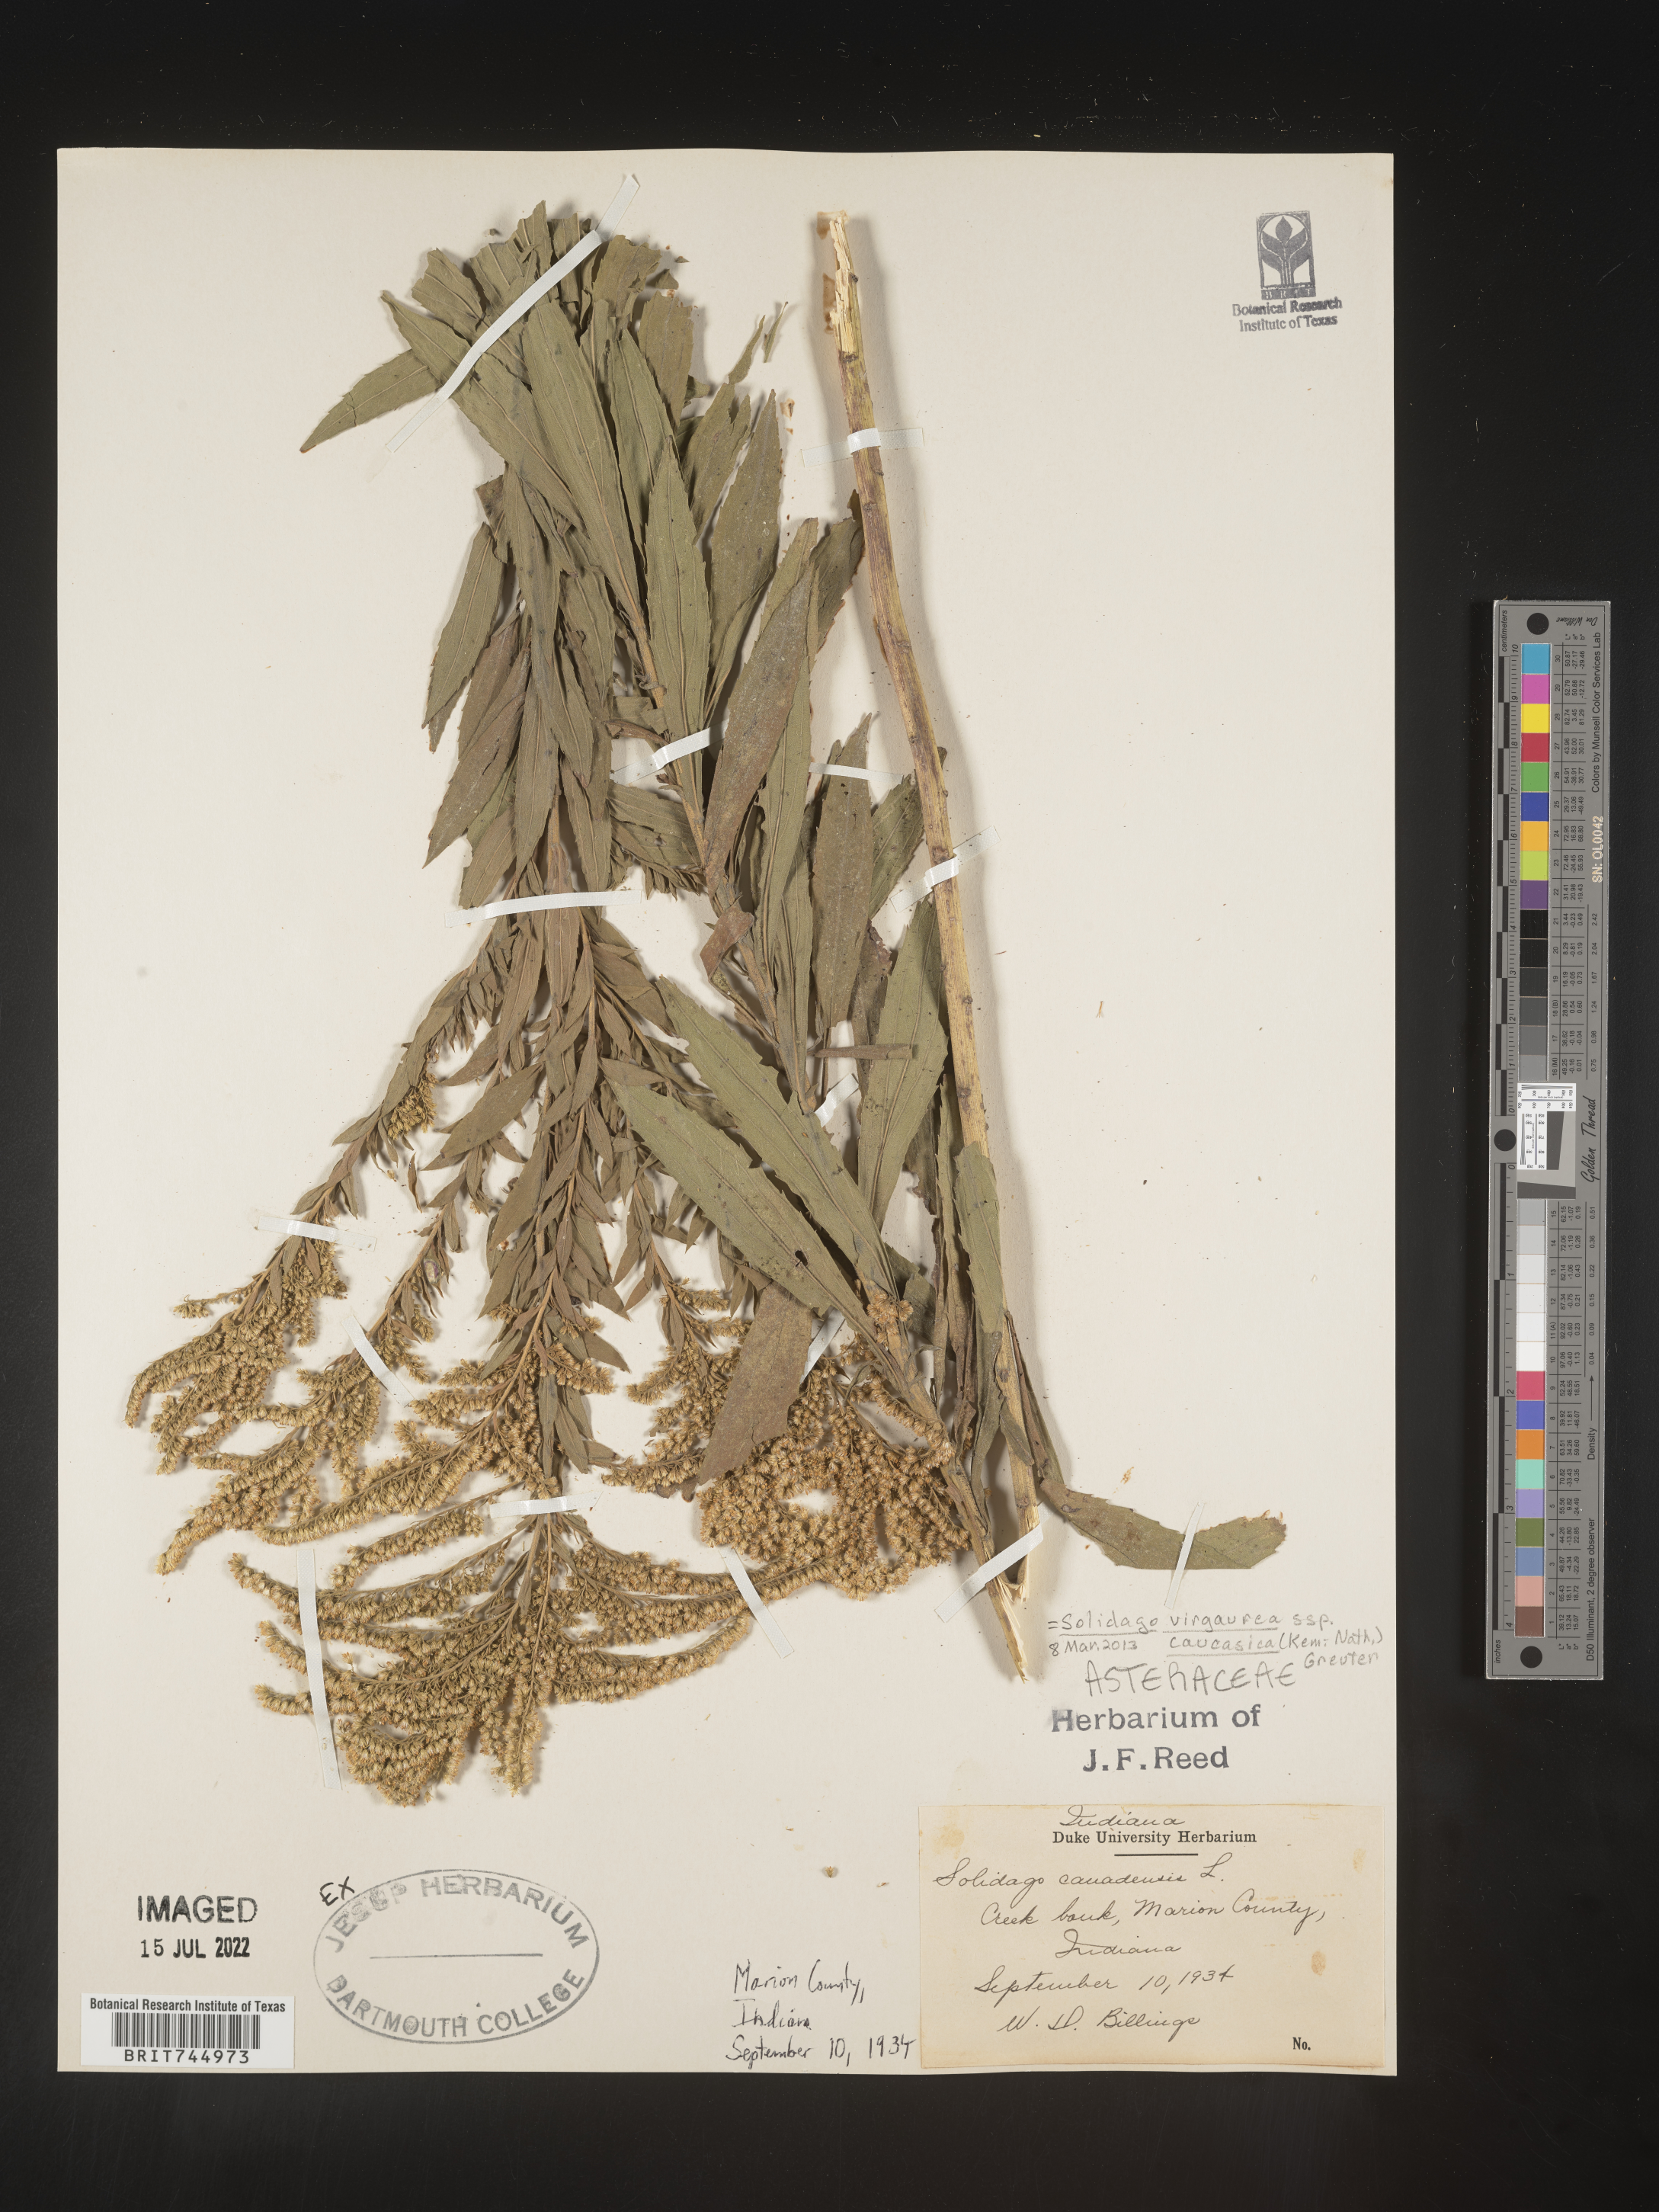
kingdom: Plantae
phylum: Tracheophyta
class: Magnoliopsida
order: Asterales
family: Asteraceae
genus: Solidago
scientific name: Solidago canadensis
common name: Canada goldenrod
